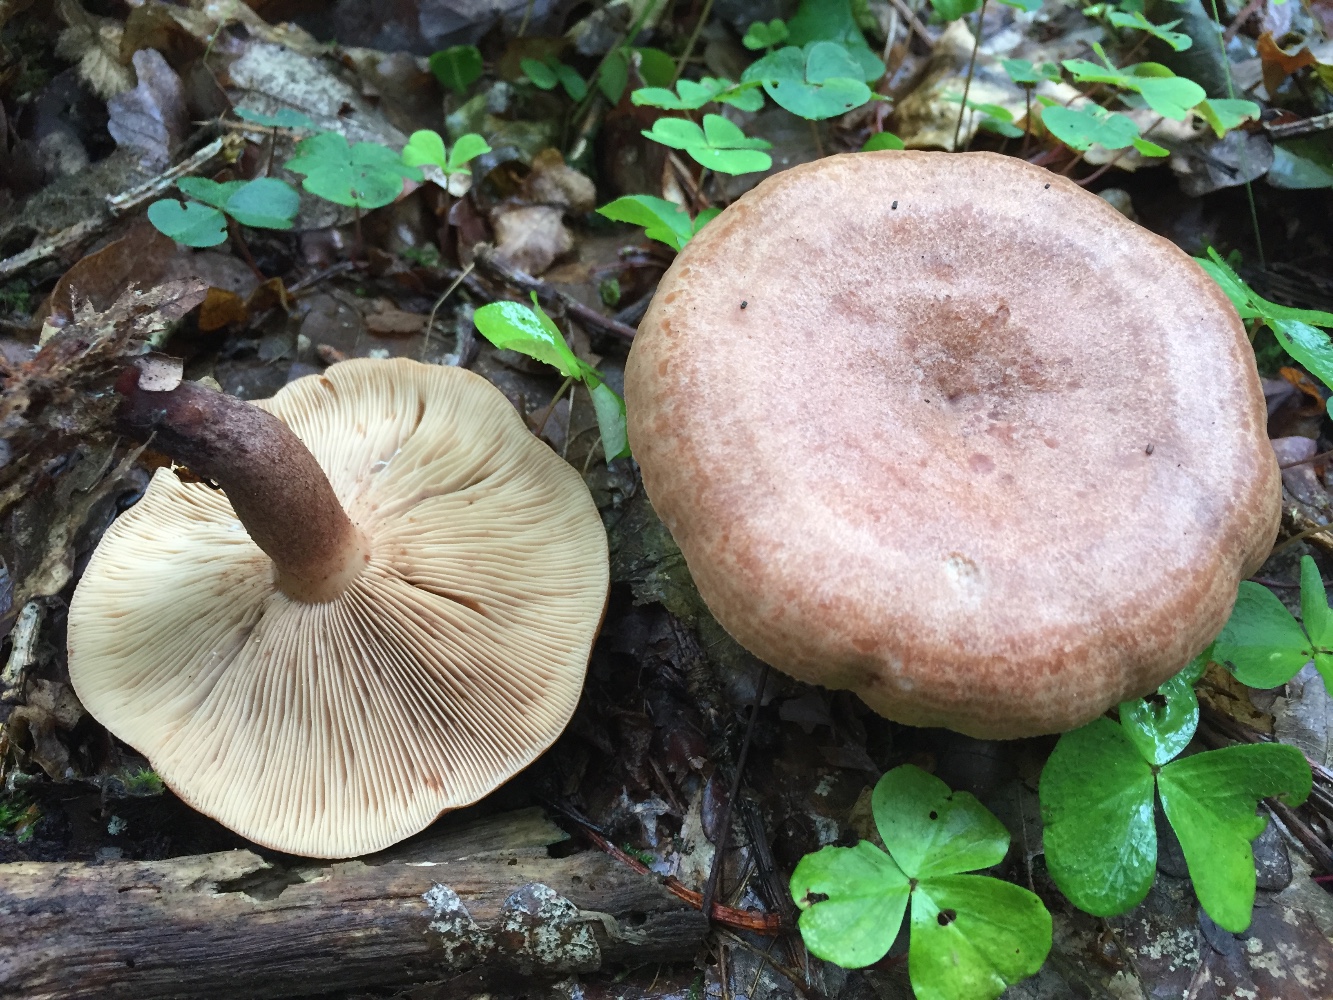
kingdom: Fungi
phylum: Basidiomycota
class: Agaricomycetes
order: Russulales
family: Russulaceae
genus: Lactarius
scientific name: Lactarius quietus
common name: ege-mælkehat
